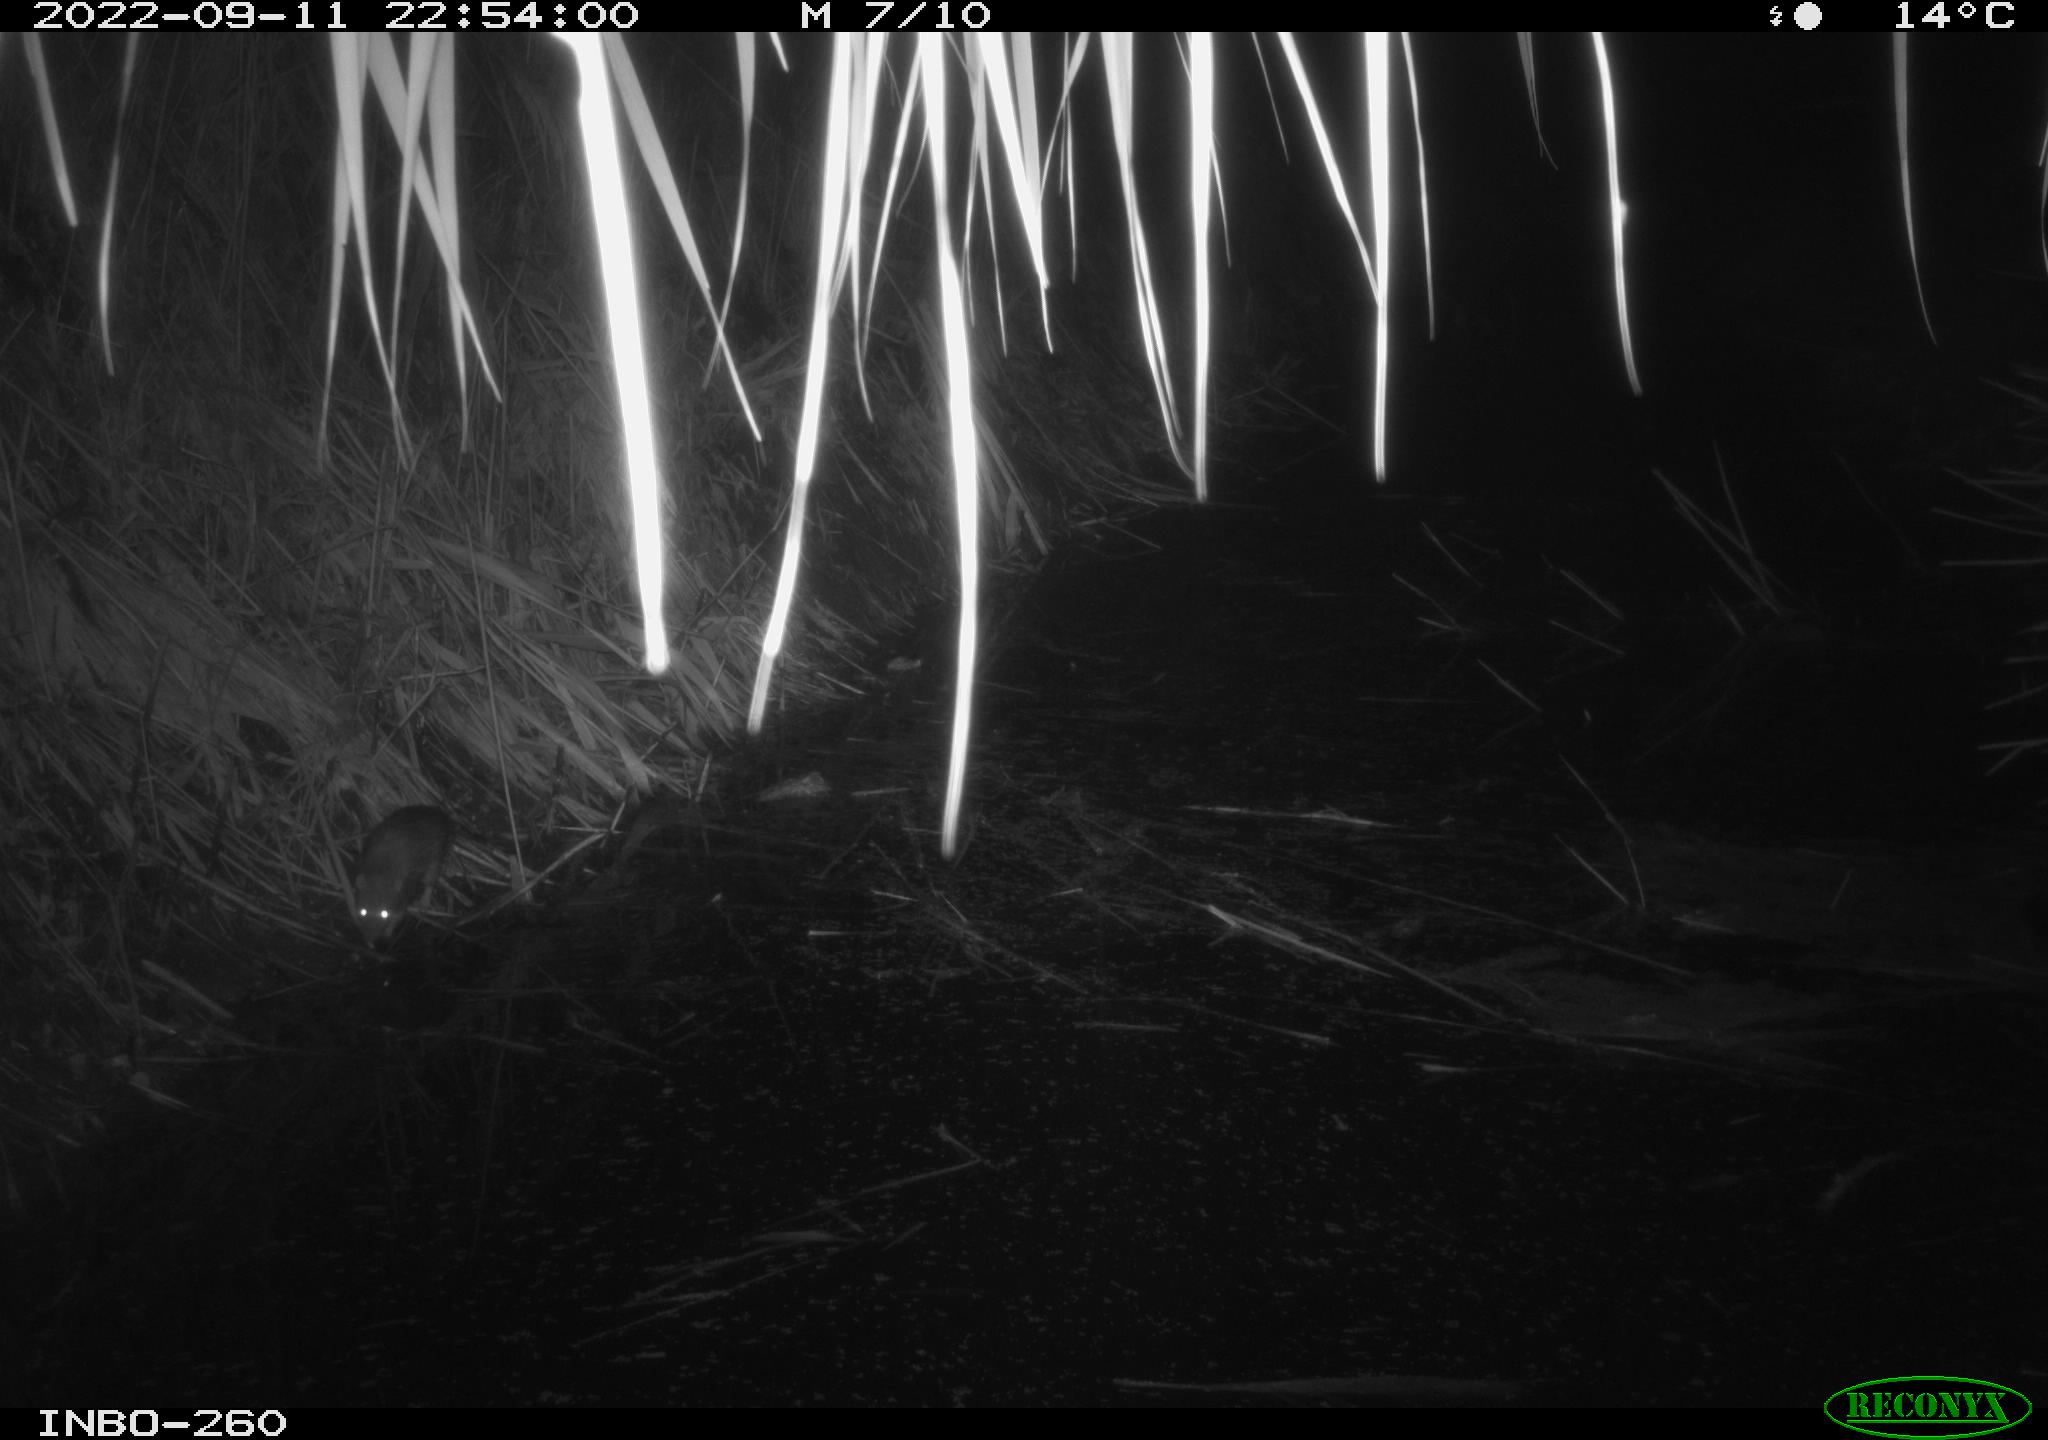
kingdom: Animalia
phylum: Chordata
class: Mammalia
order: Rodentia
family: Muridae
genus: Rattus
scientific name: Rattus norvegicus
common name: Brown rat
